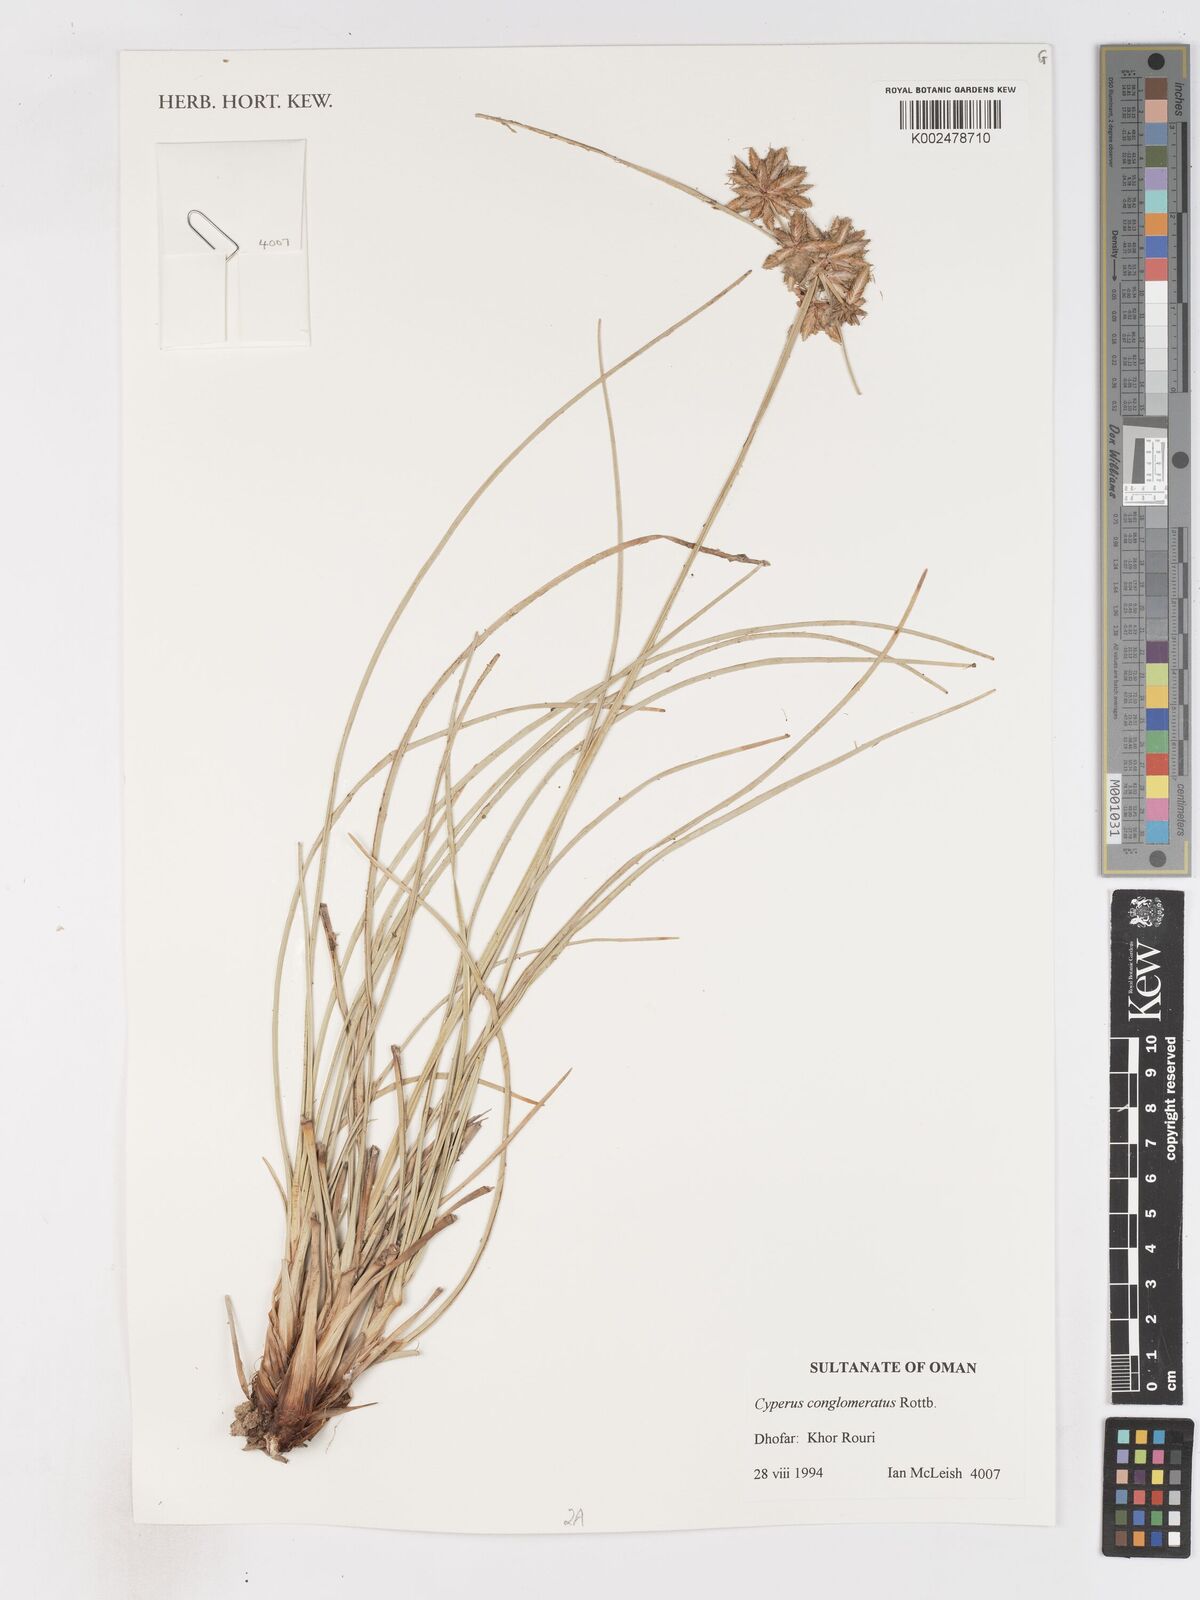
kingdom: Plantae
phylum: Tracheophyta
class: Liliopsida
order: Poales
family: Cyperaceae
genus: Cyperus
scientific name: Cyperus conglomeratus
